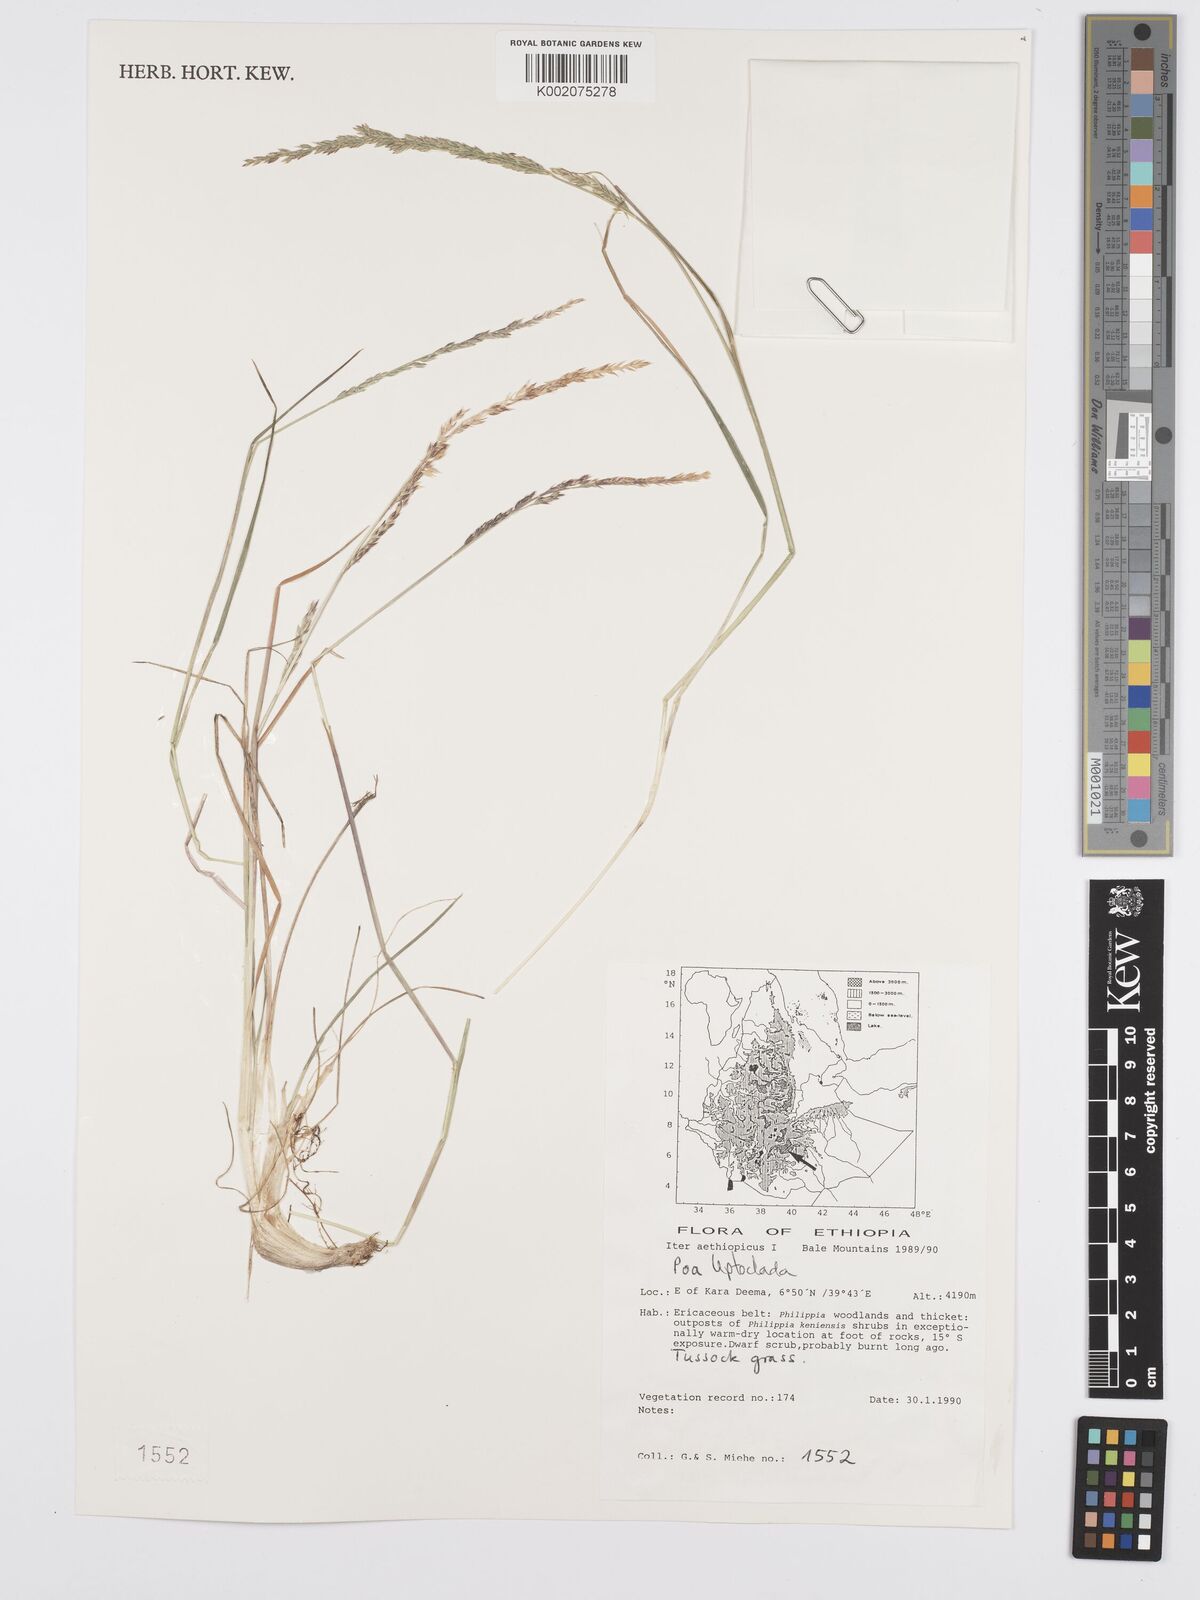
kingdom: Plantae
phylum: Tracheophyta
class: Liliopsida
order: Poales
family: Poaceae
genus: Poa
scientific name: Poa leptoclada
